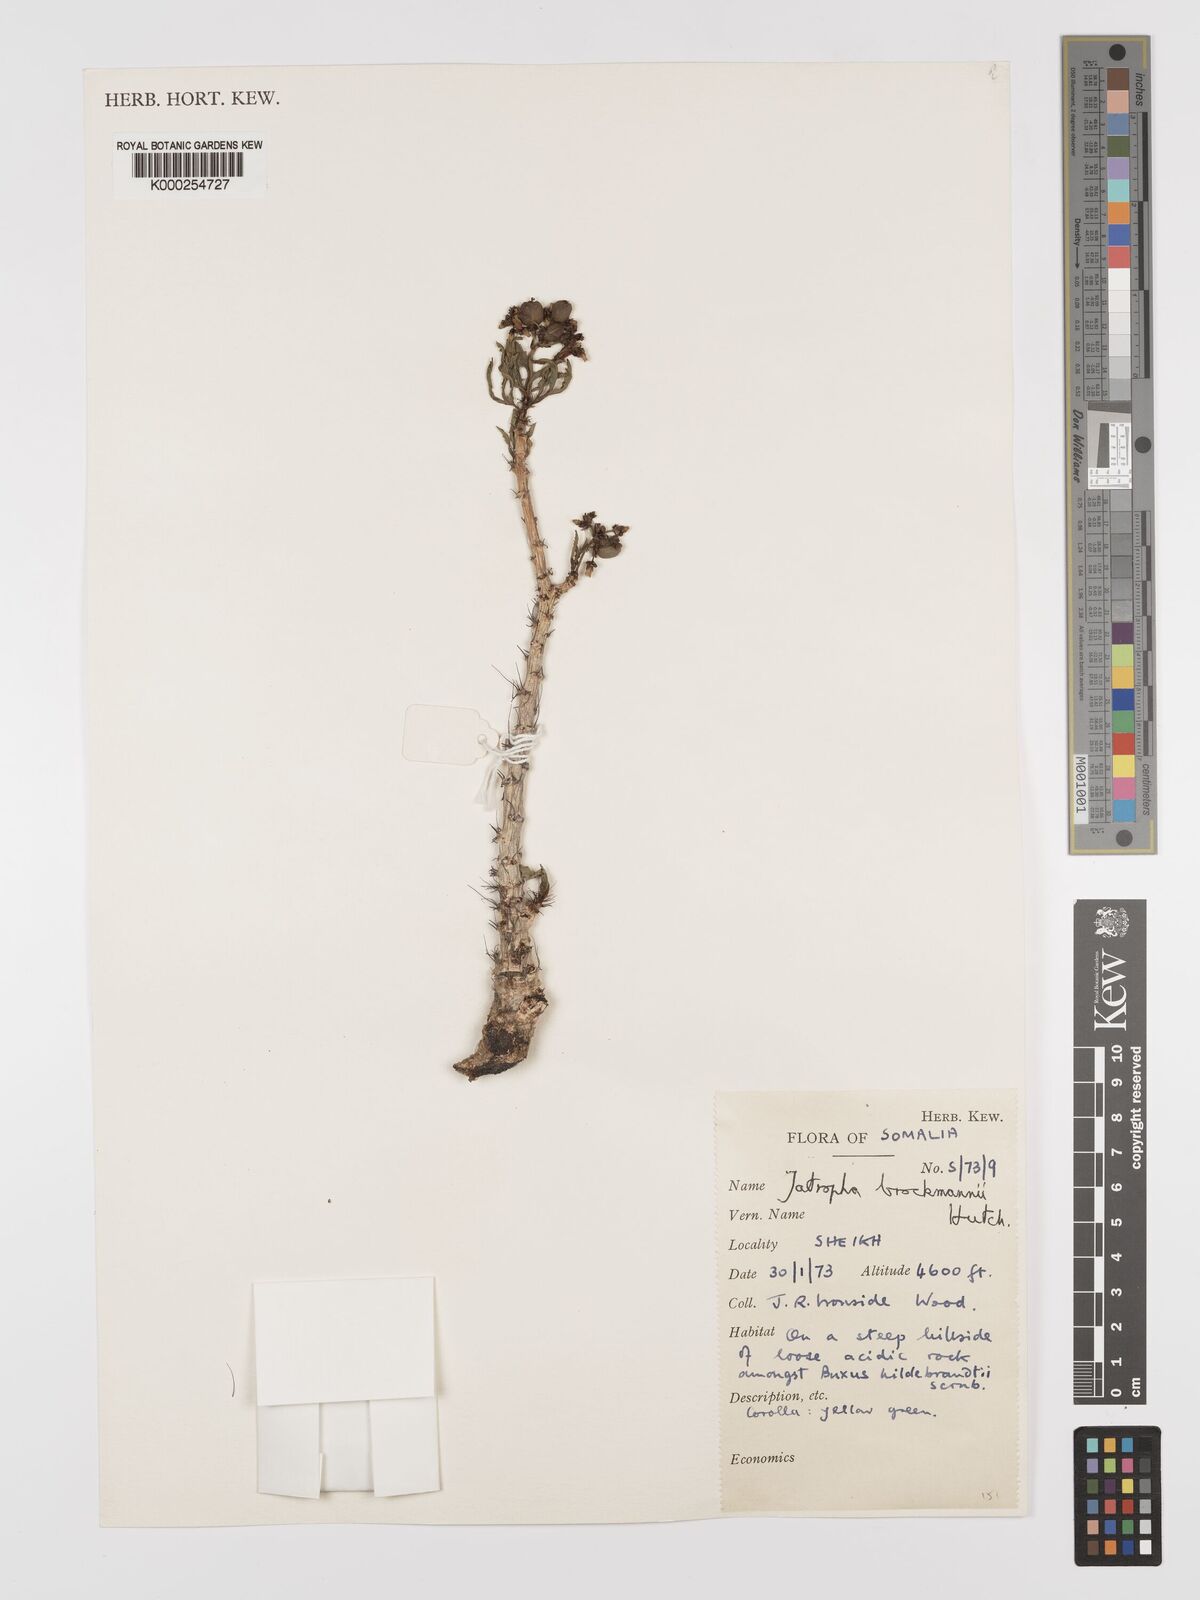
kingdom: Plantae
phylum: Tracheophyta
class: Magnoliopsida
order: Malpighiales
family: Euphorbiaceae
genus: Jatropha
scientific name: Jatropha brockmanii
